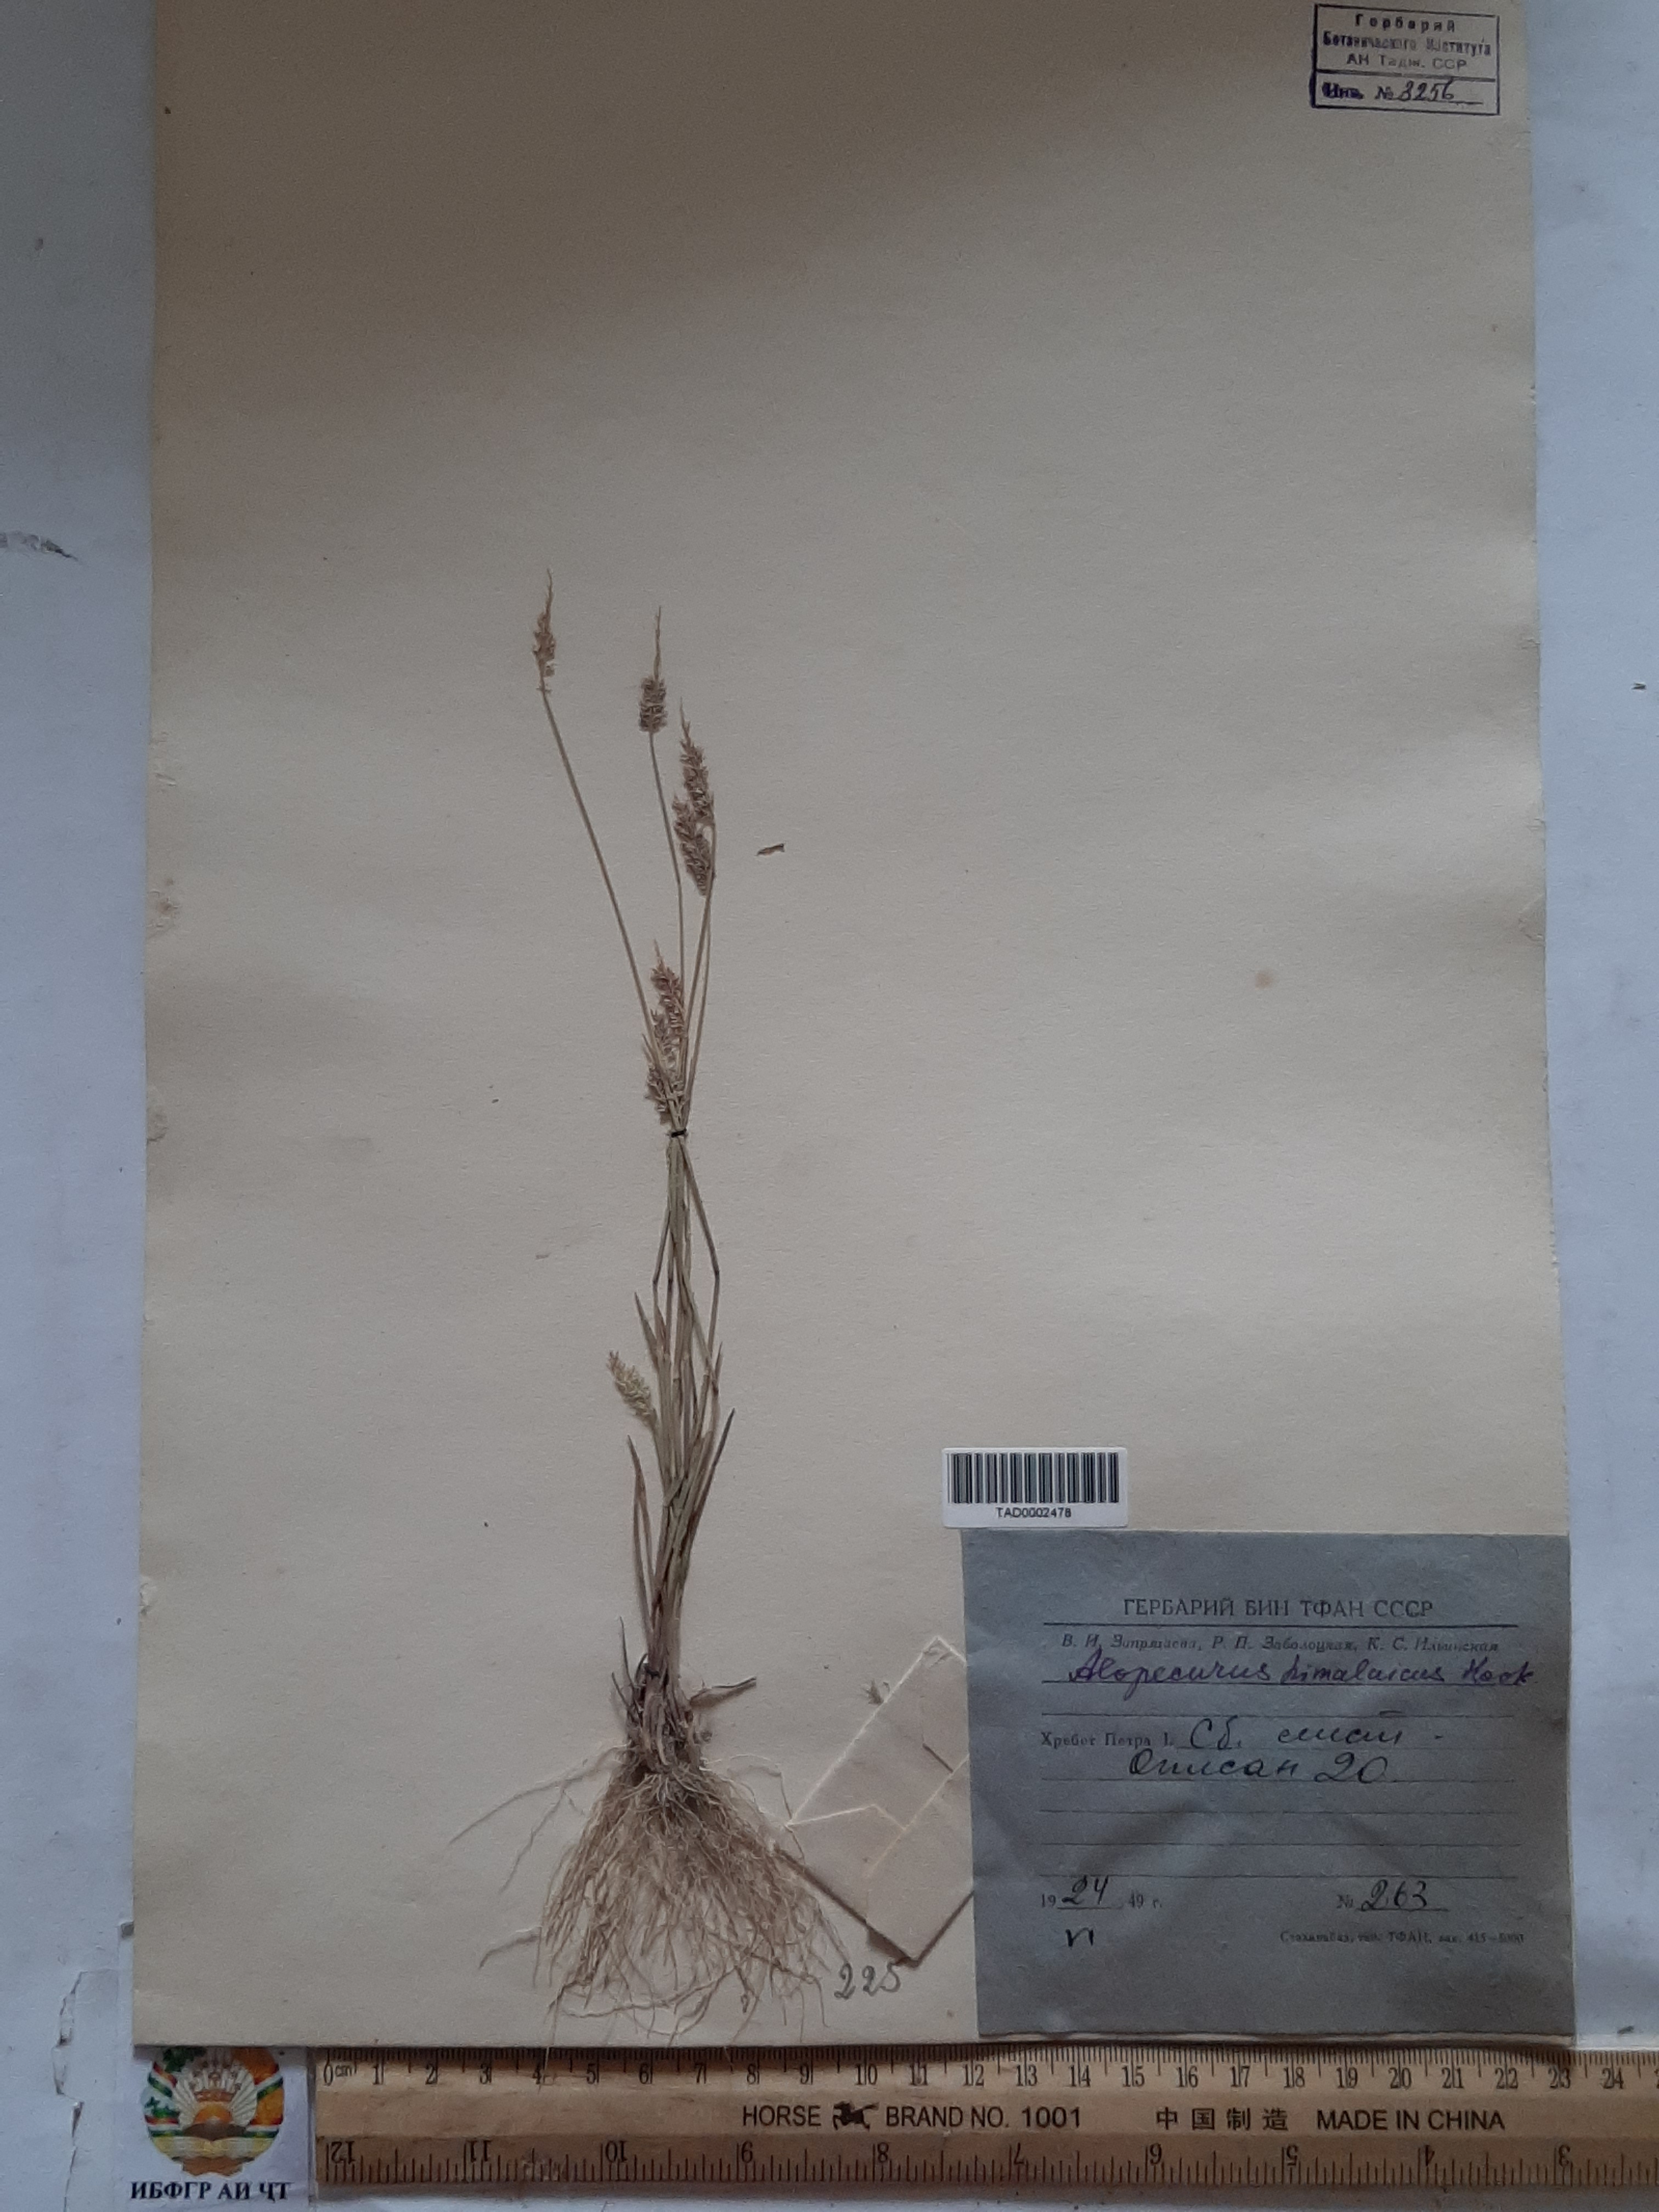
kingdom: Plantae
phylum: Tracheophyta
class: Liliopsida
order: Poales
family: Poaceae
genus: Alopecurus
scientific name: Alopecurus himalaicus
